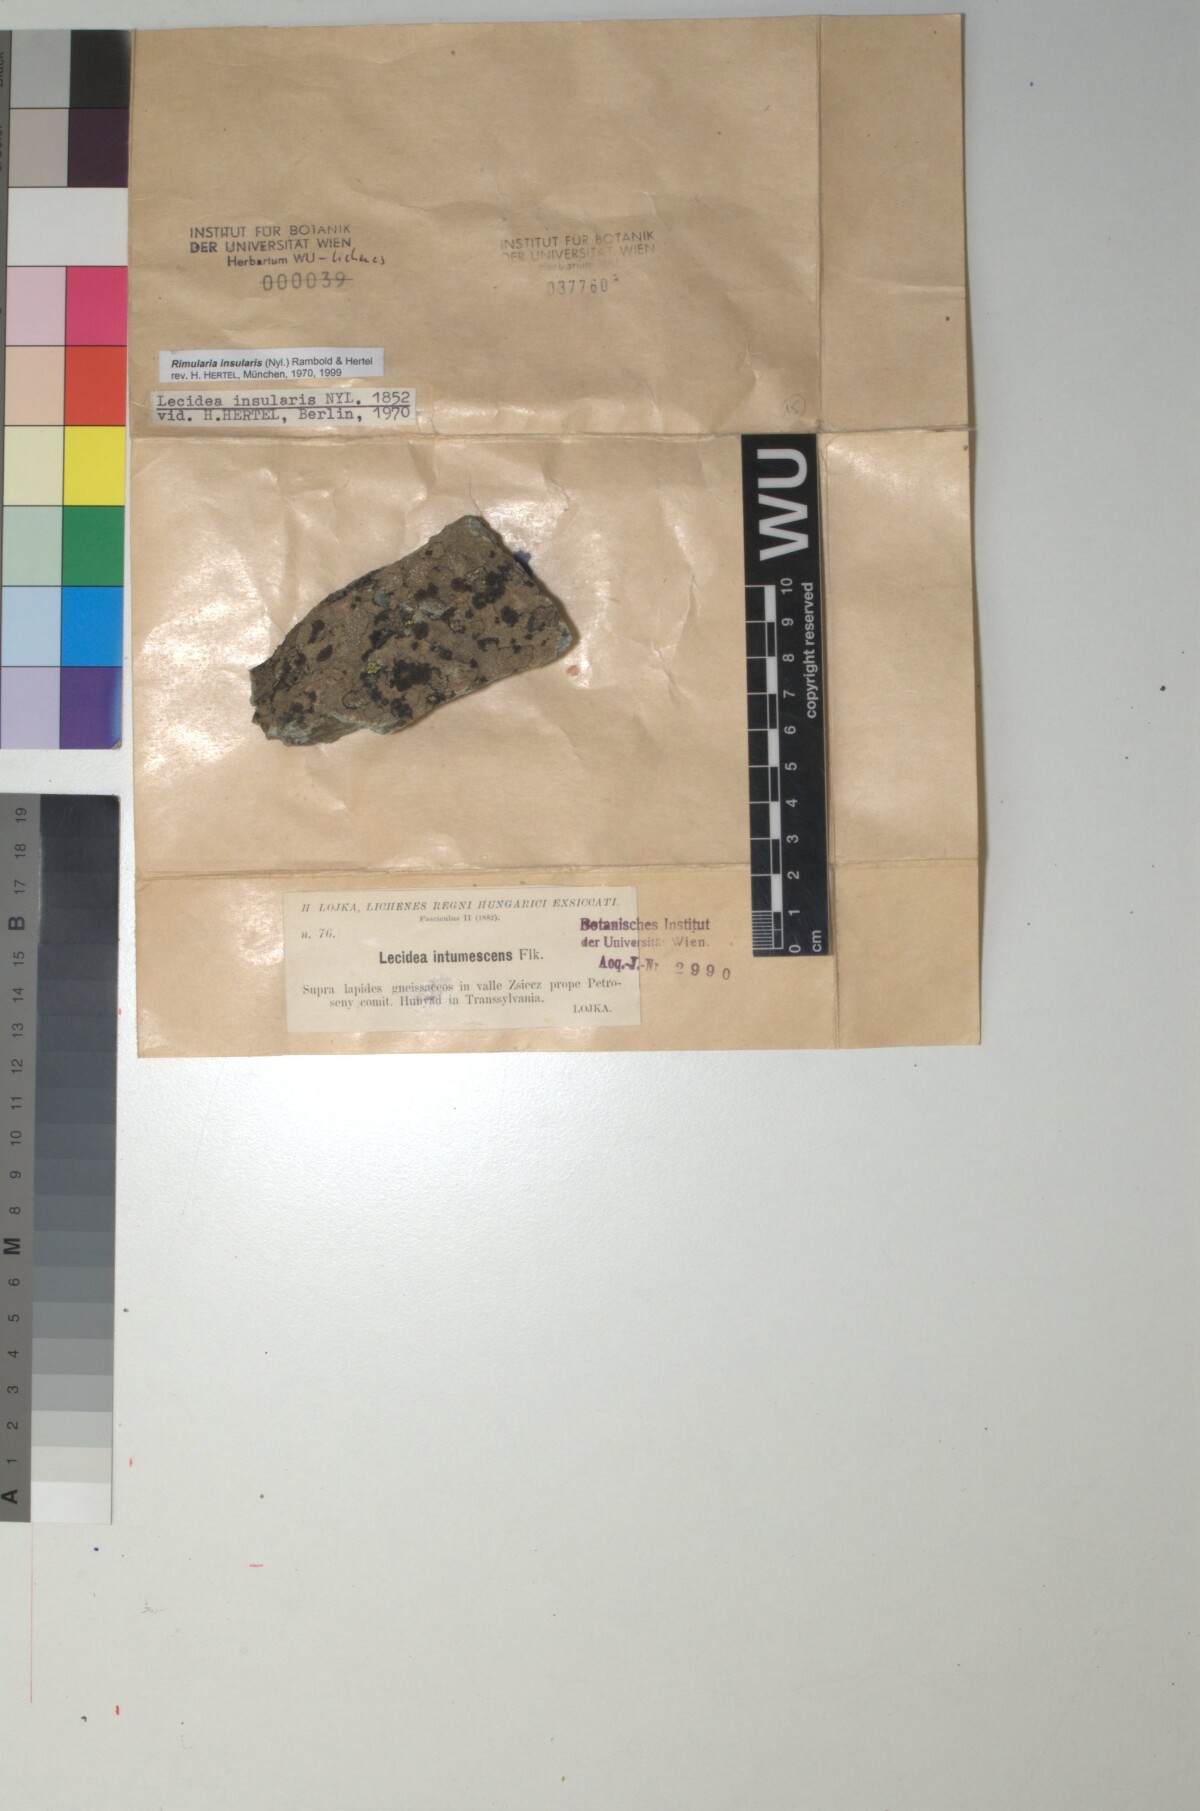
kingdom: Fungi
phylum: Ascomycota
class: Lecanoromycetes
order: Baeomycetales
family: Trapeliaceae
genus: Lambiella
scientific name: Lambiella insularis
